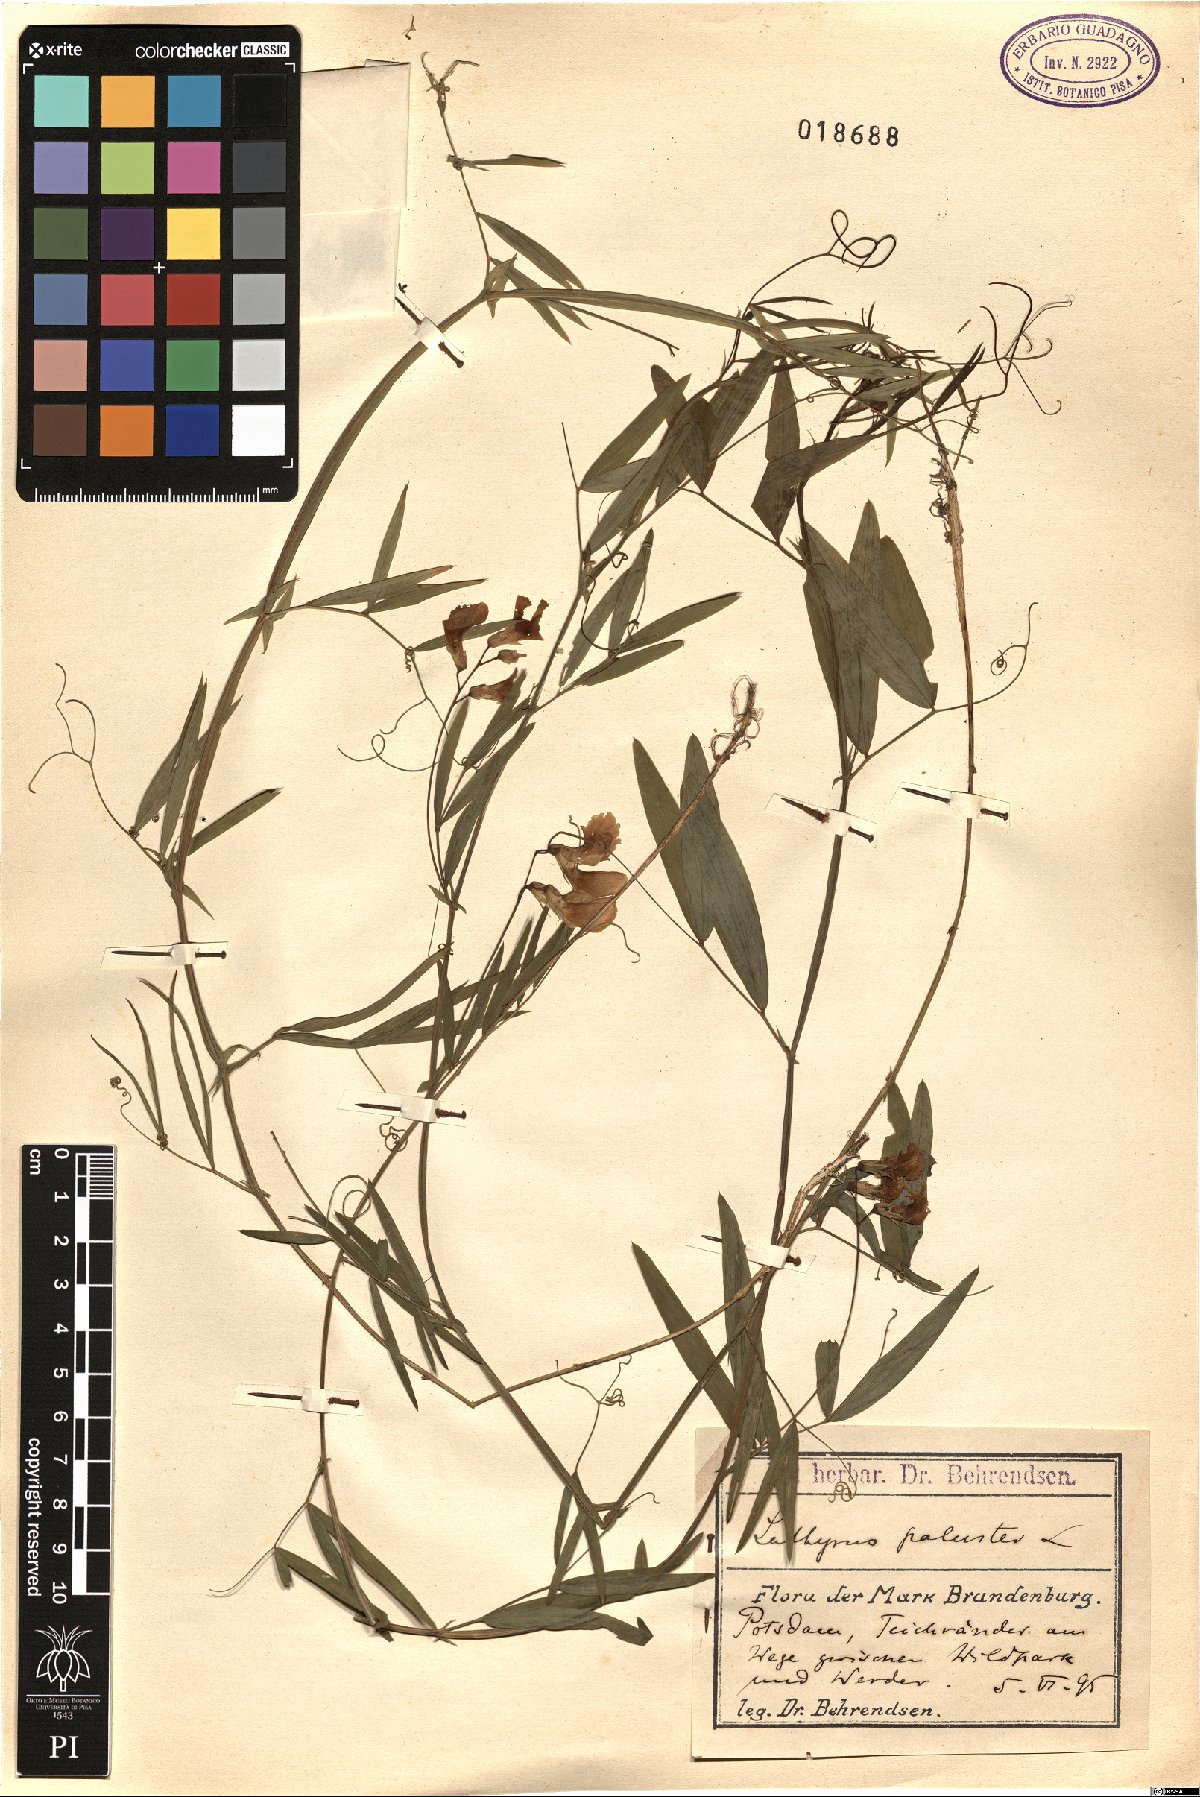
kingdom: Plantae
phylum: Tracheophyta
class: Magnoliopsida
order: Fabales
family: Fabaceae
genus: Lathyrus
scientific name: Lathyrus palustris
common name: Marsh pea
